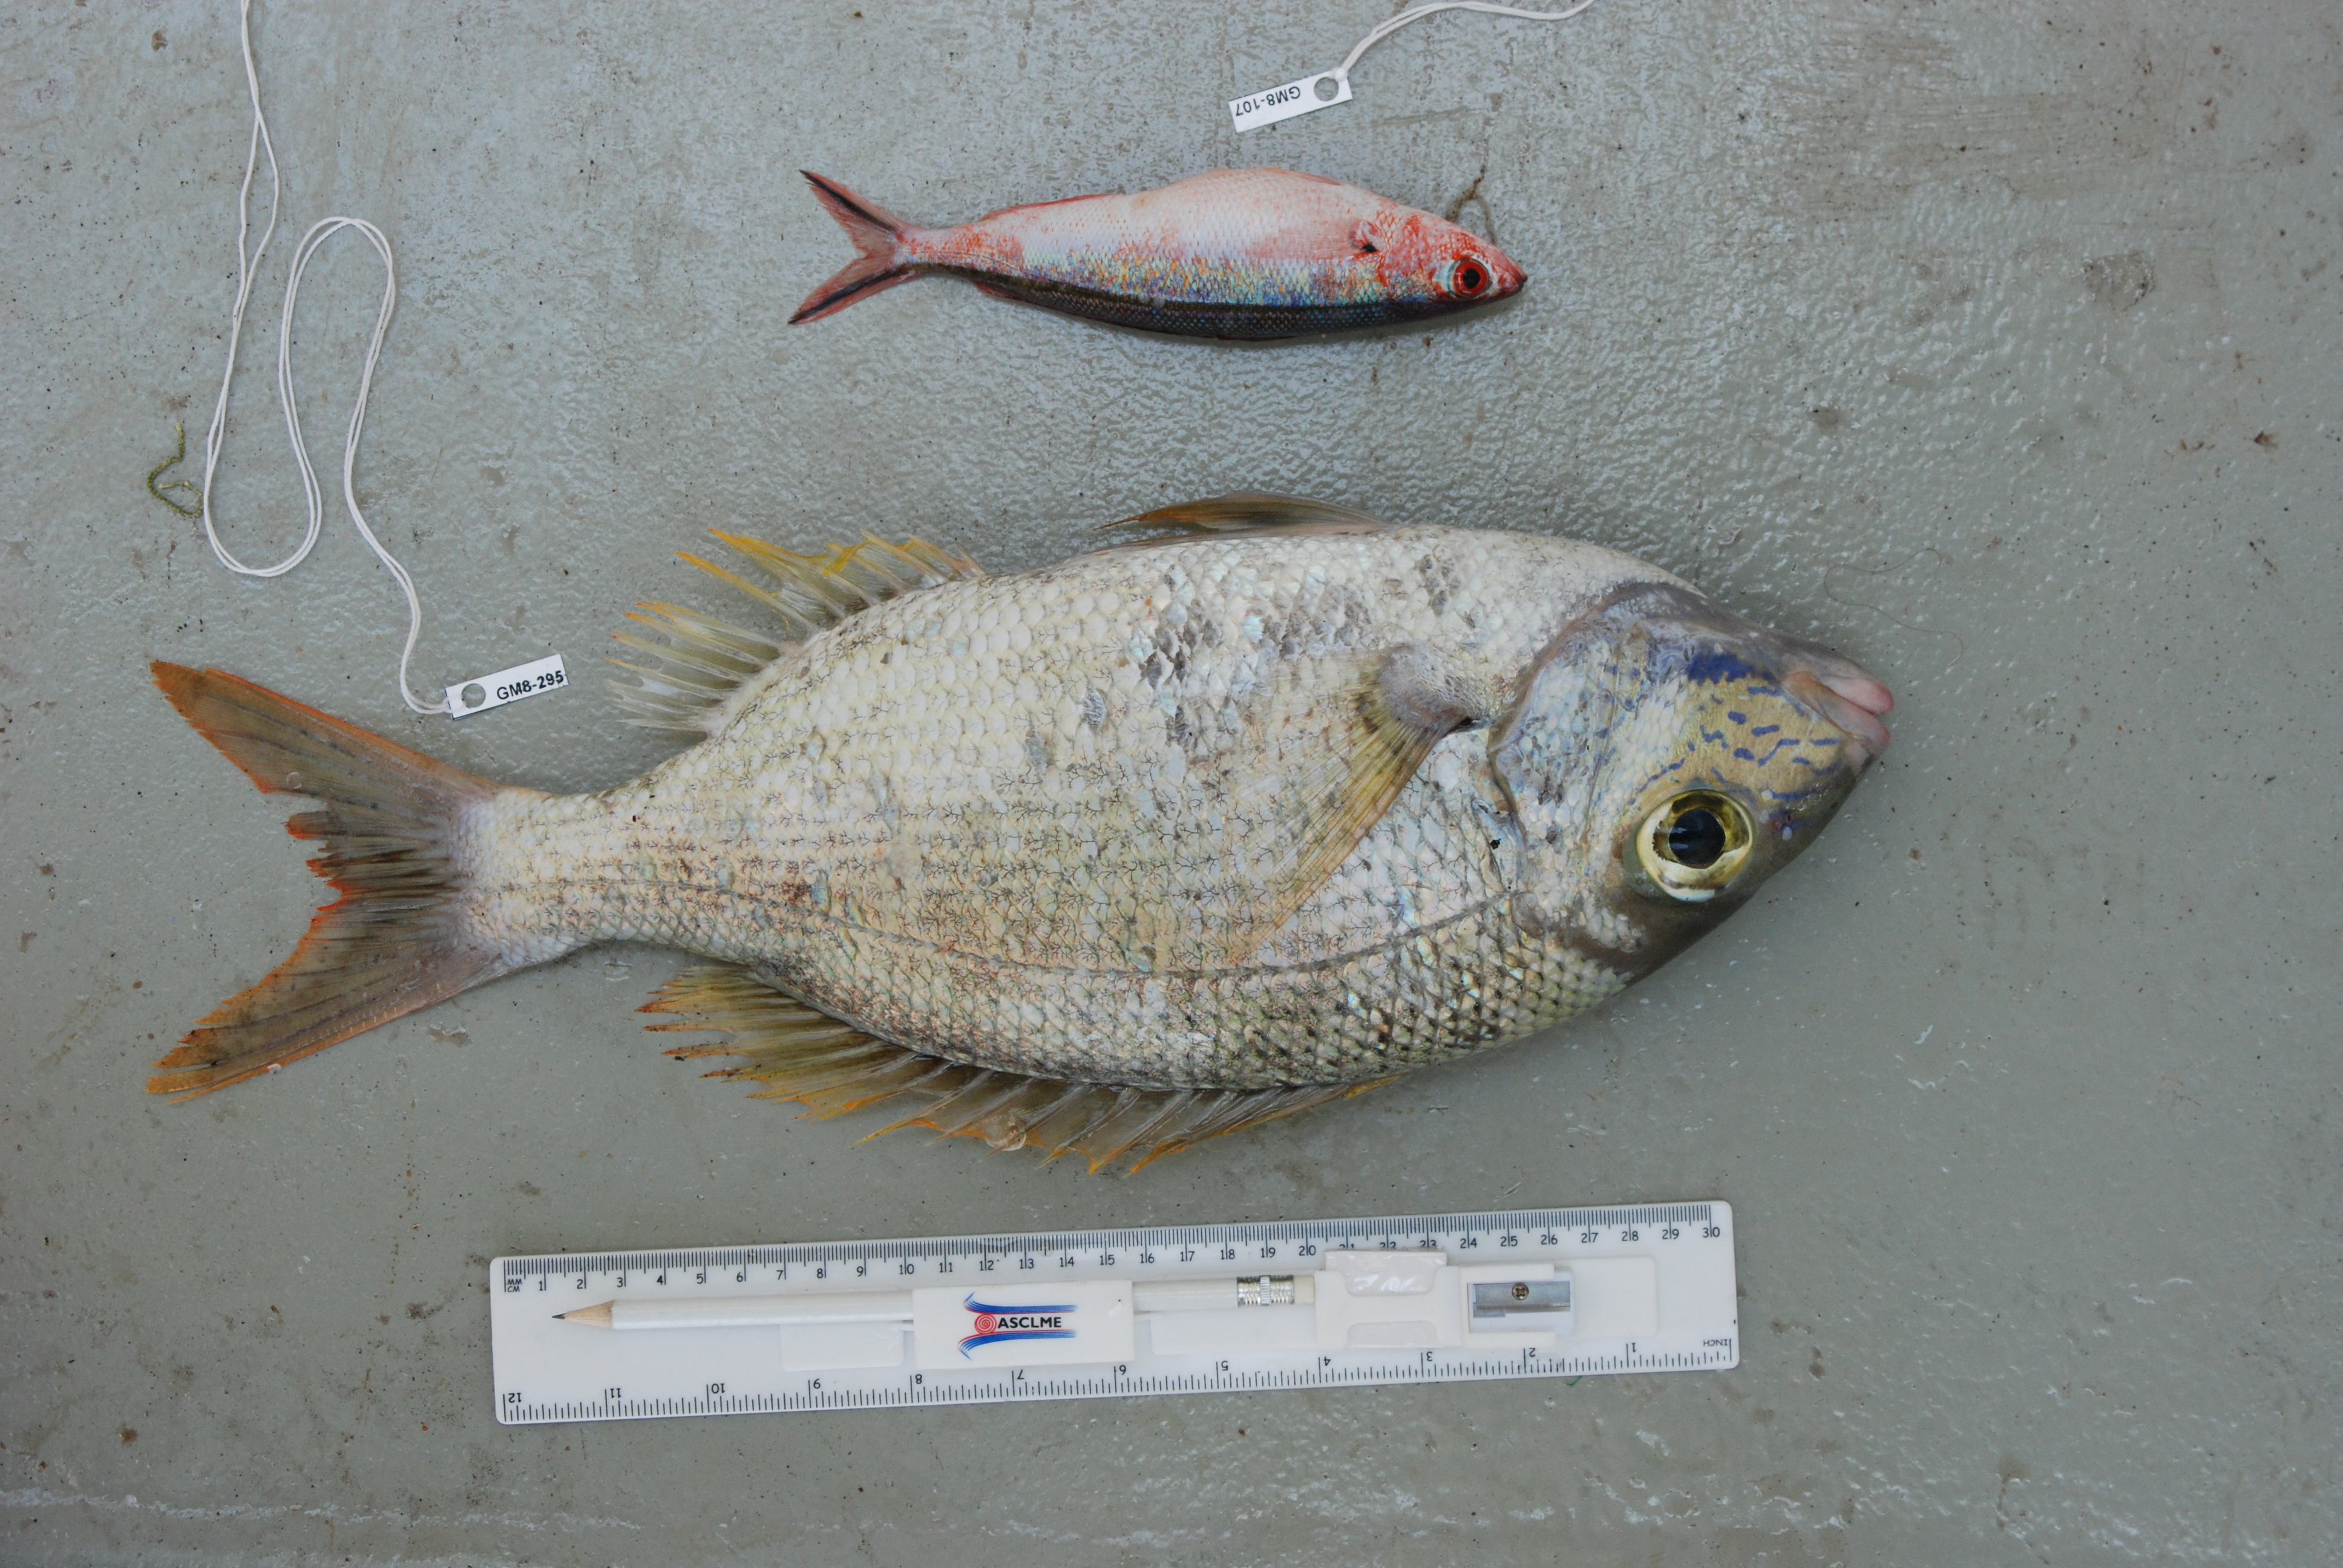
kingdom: Animalia
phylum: Chordata
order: Perciformes
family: Caesionidae
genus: Pterocaesio
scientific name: Pterocaesio tile
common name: Dark-banded fusilier
